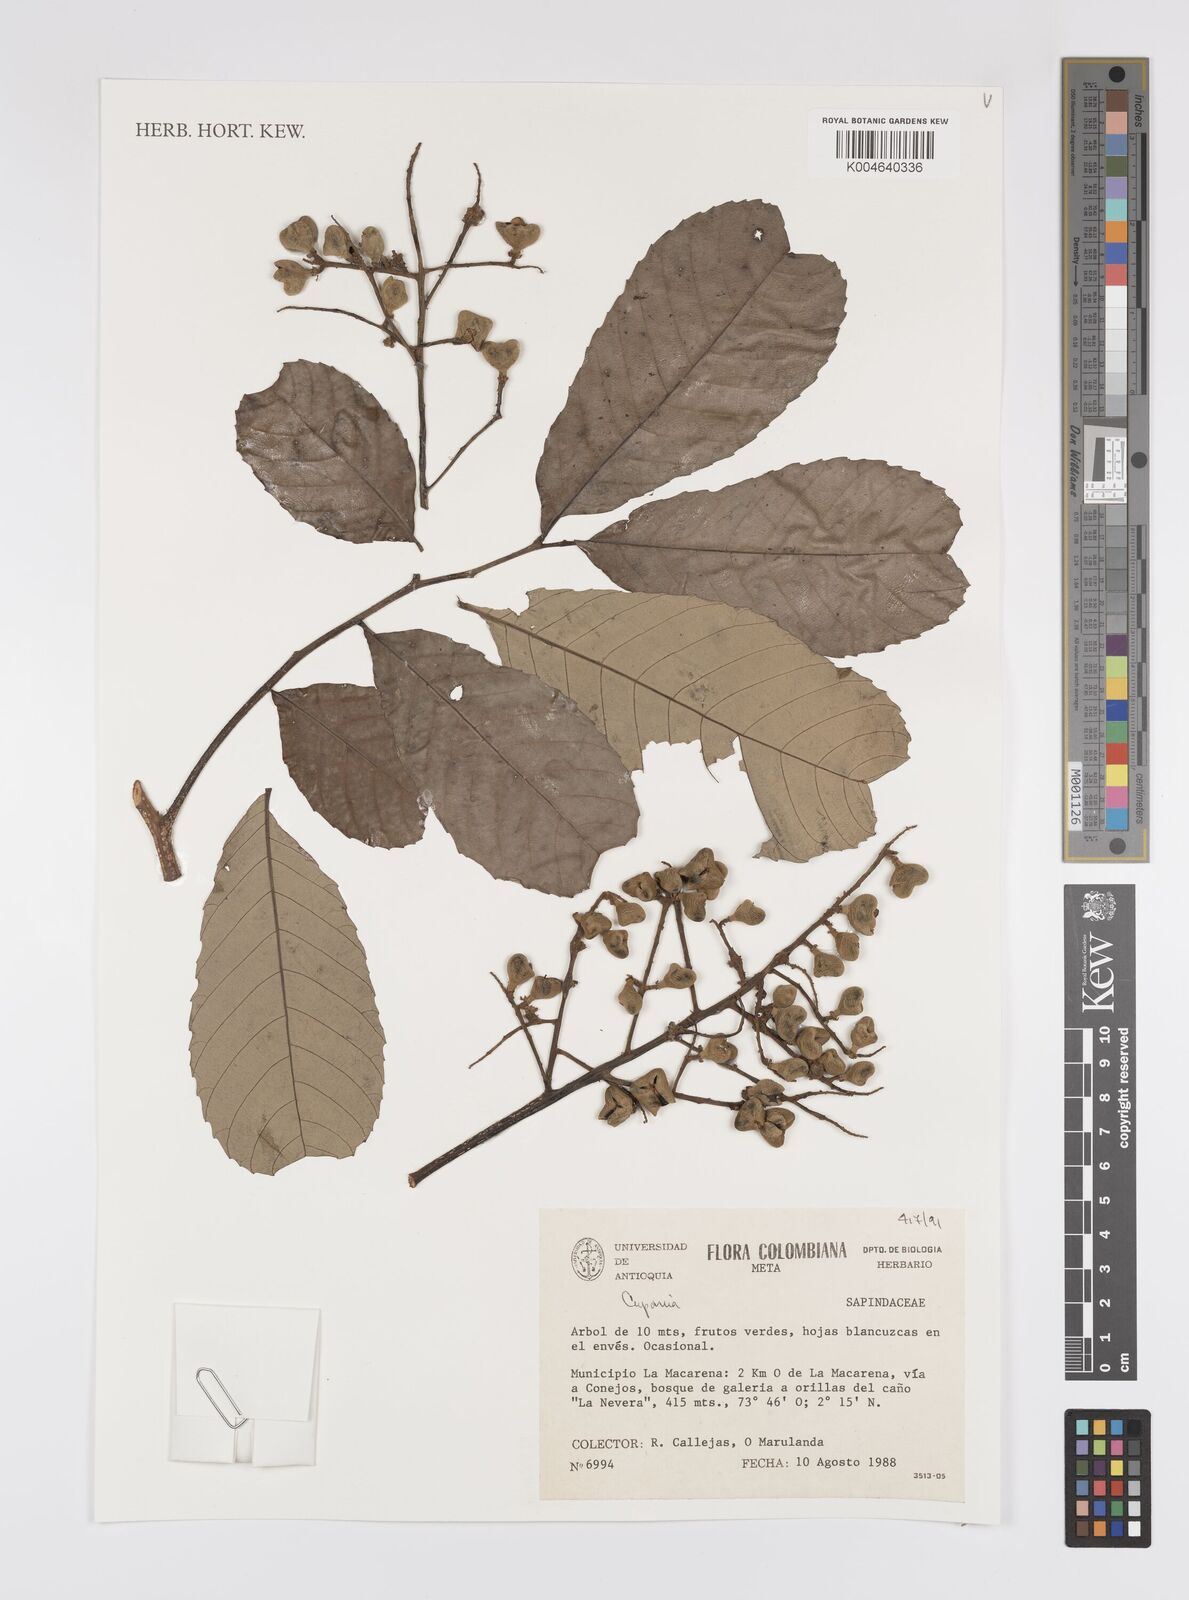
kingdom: Plantae
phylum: Tracheophyta
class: Magnoliopsida
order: Sapindales
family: Sapindaceae
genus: Cupania
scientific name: Cupania
